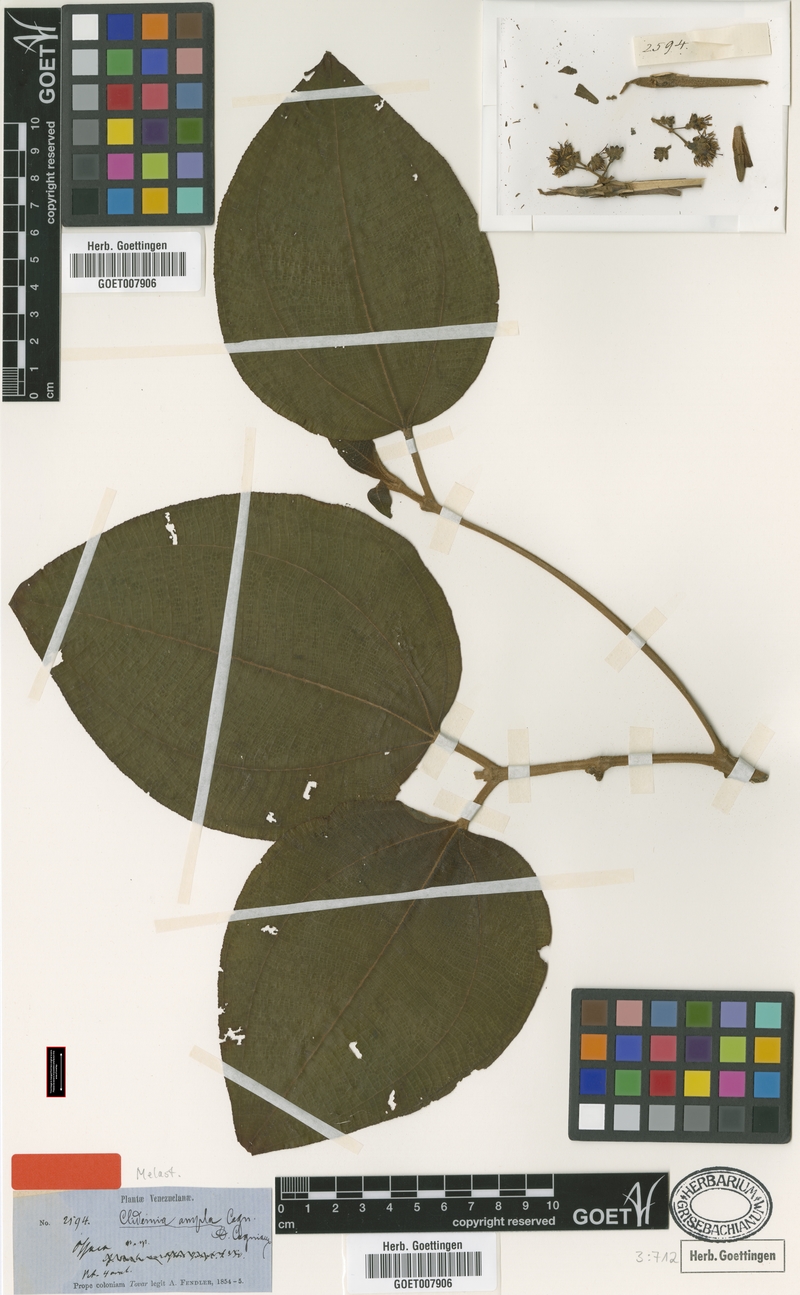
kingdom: Plantae
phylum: Tracheophyta
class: Magnoliopsida
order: Myrtales
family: Melastomataceae
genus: Miconia
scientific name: Miconia amplilamina
